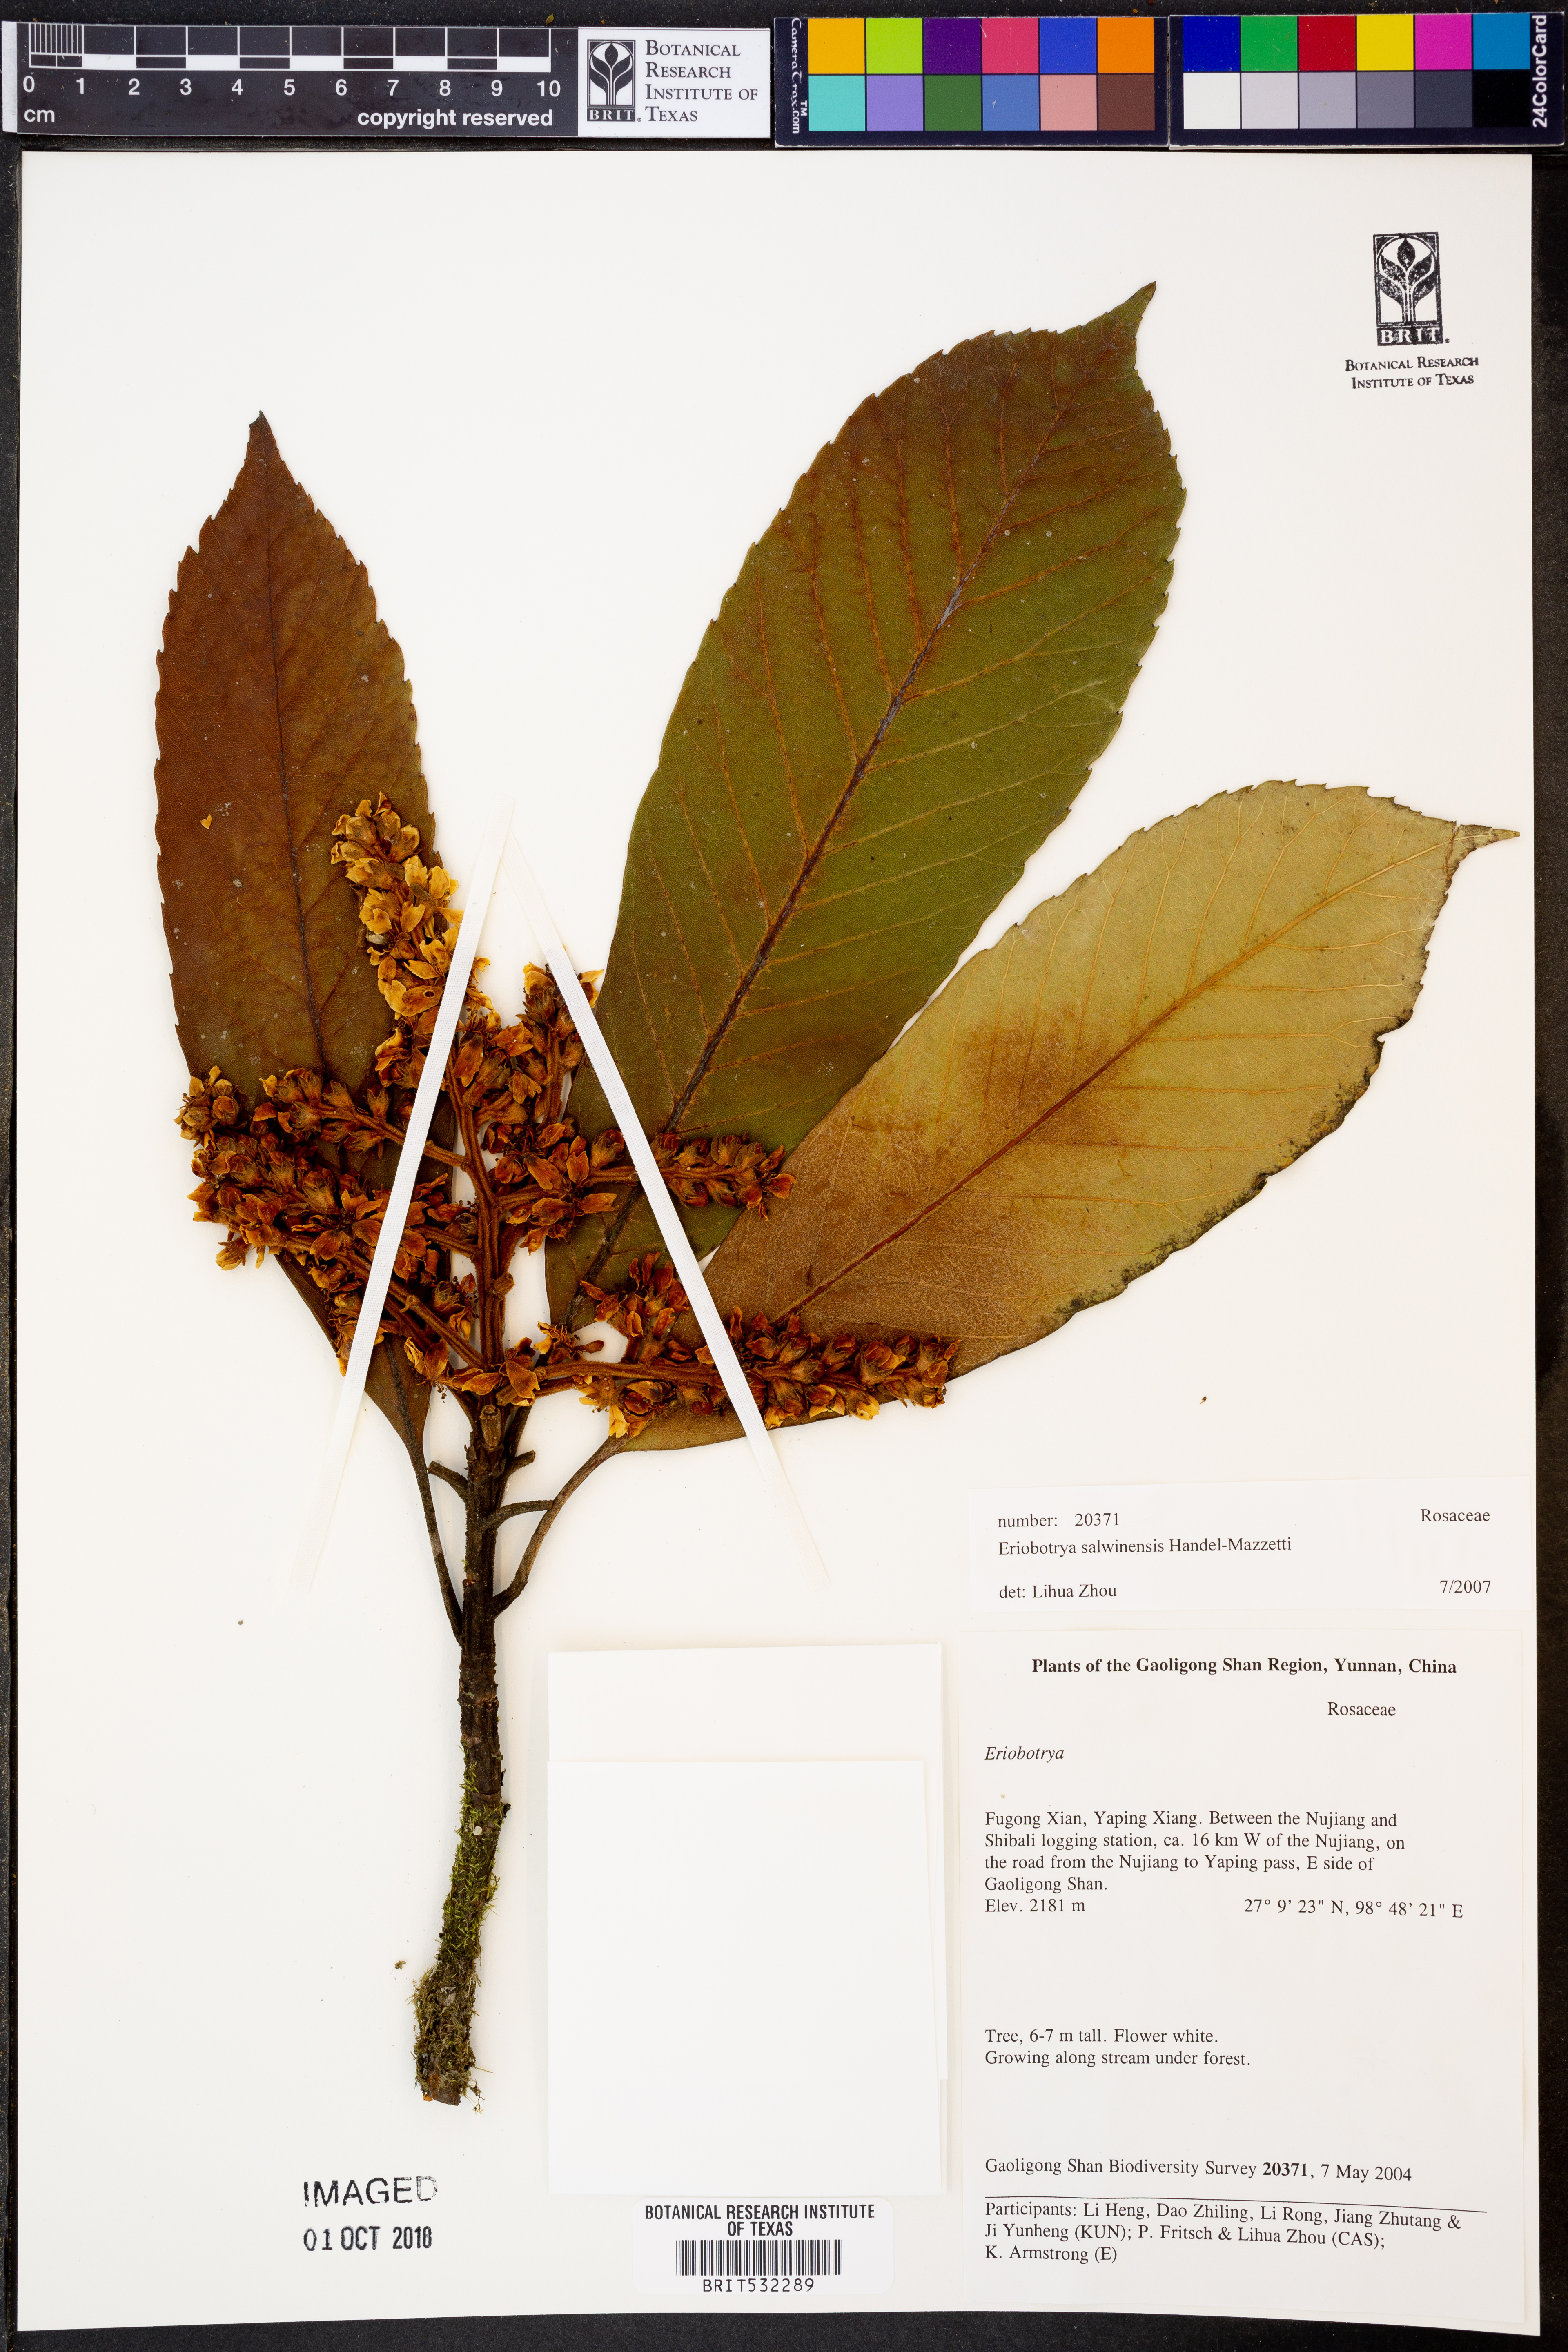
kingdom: Plantae
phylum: Tracheophyta
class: Magnoliopsida
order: Rosales
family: Rosaceae
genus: Rhaphiolepis
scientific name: Rhaphiolepis salwinensis
